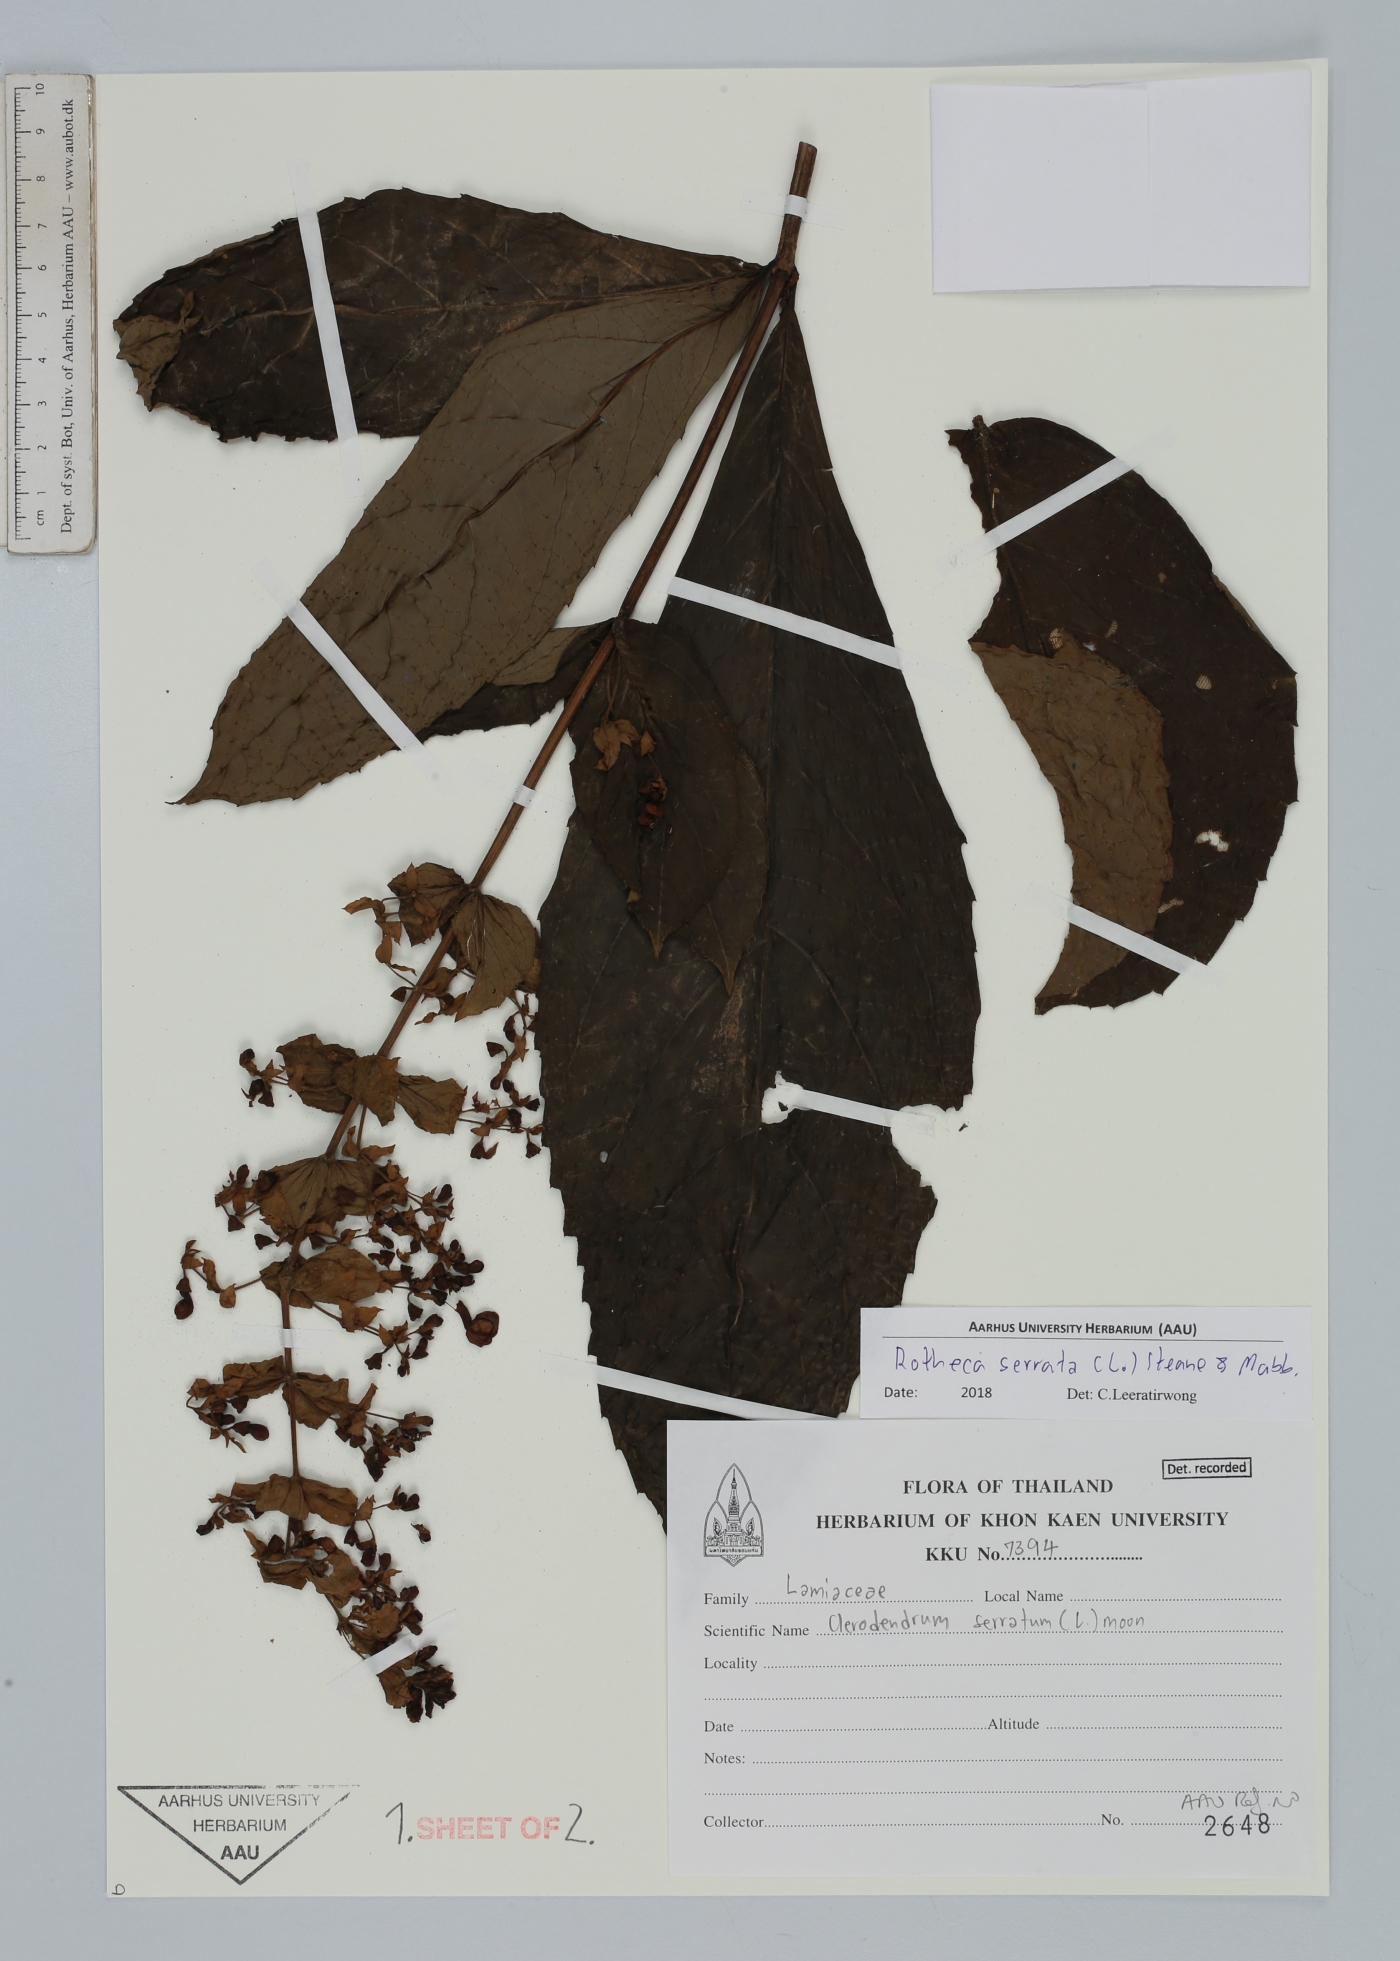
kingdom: Plantae
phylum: Tracheophyta
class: Magnoliopsida
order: Lamiales
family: Lamiaceae
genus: Rotheca
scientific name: Rotheca serrata
